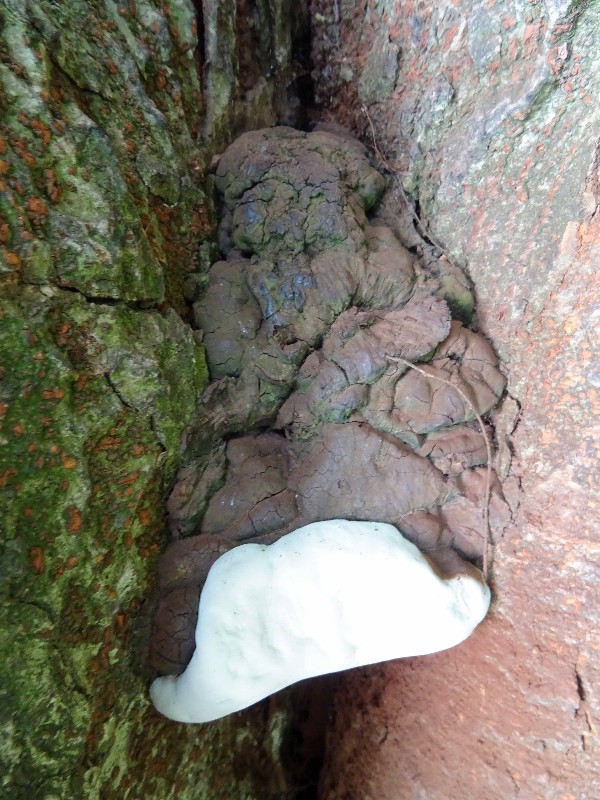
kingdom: Fungi
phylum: Basidiomycota
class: Agaricomycetes
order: Polyporales
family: Polyporaceae
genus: Ganoderma
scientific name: Ganoderma adspersum
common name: grov lakporesvamp
